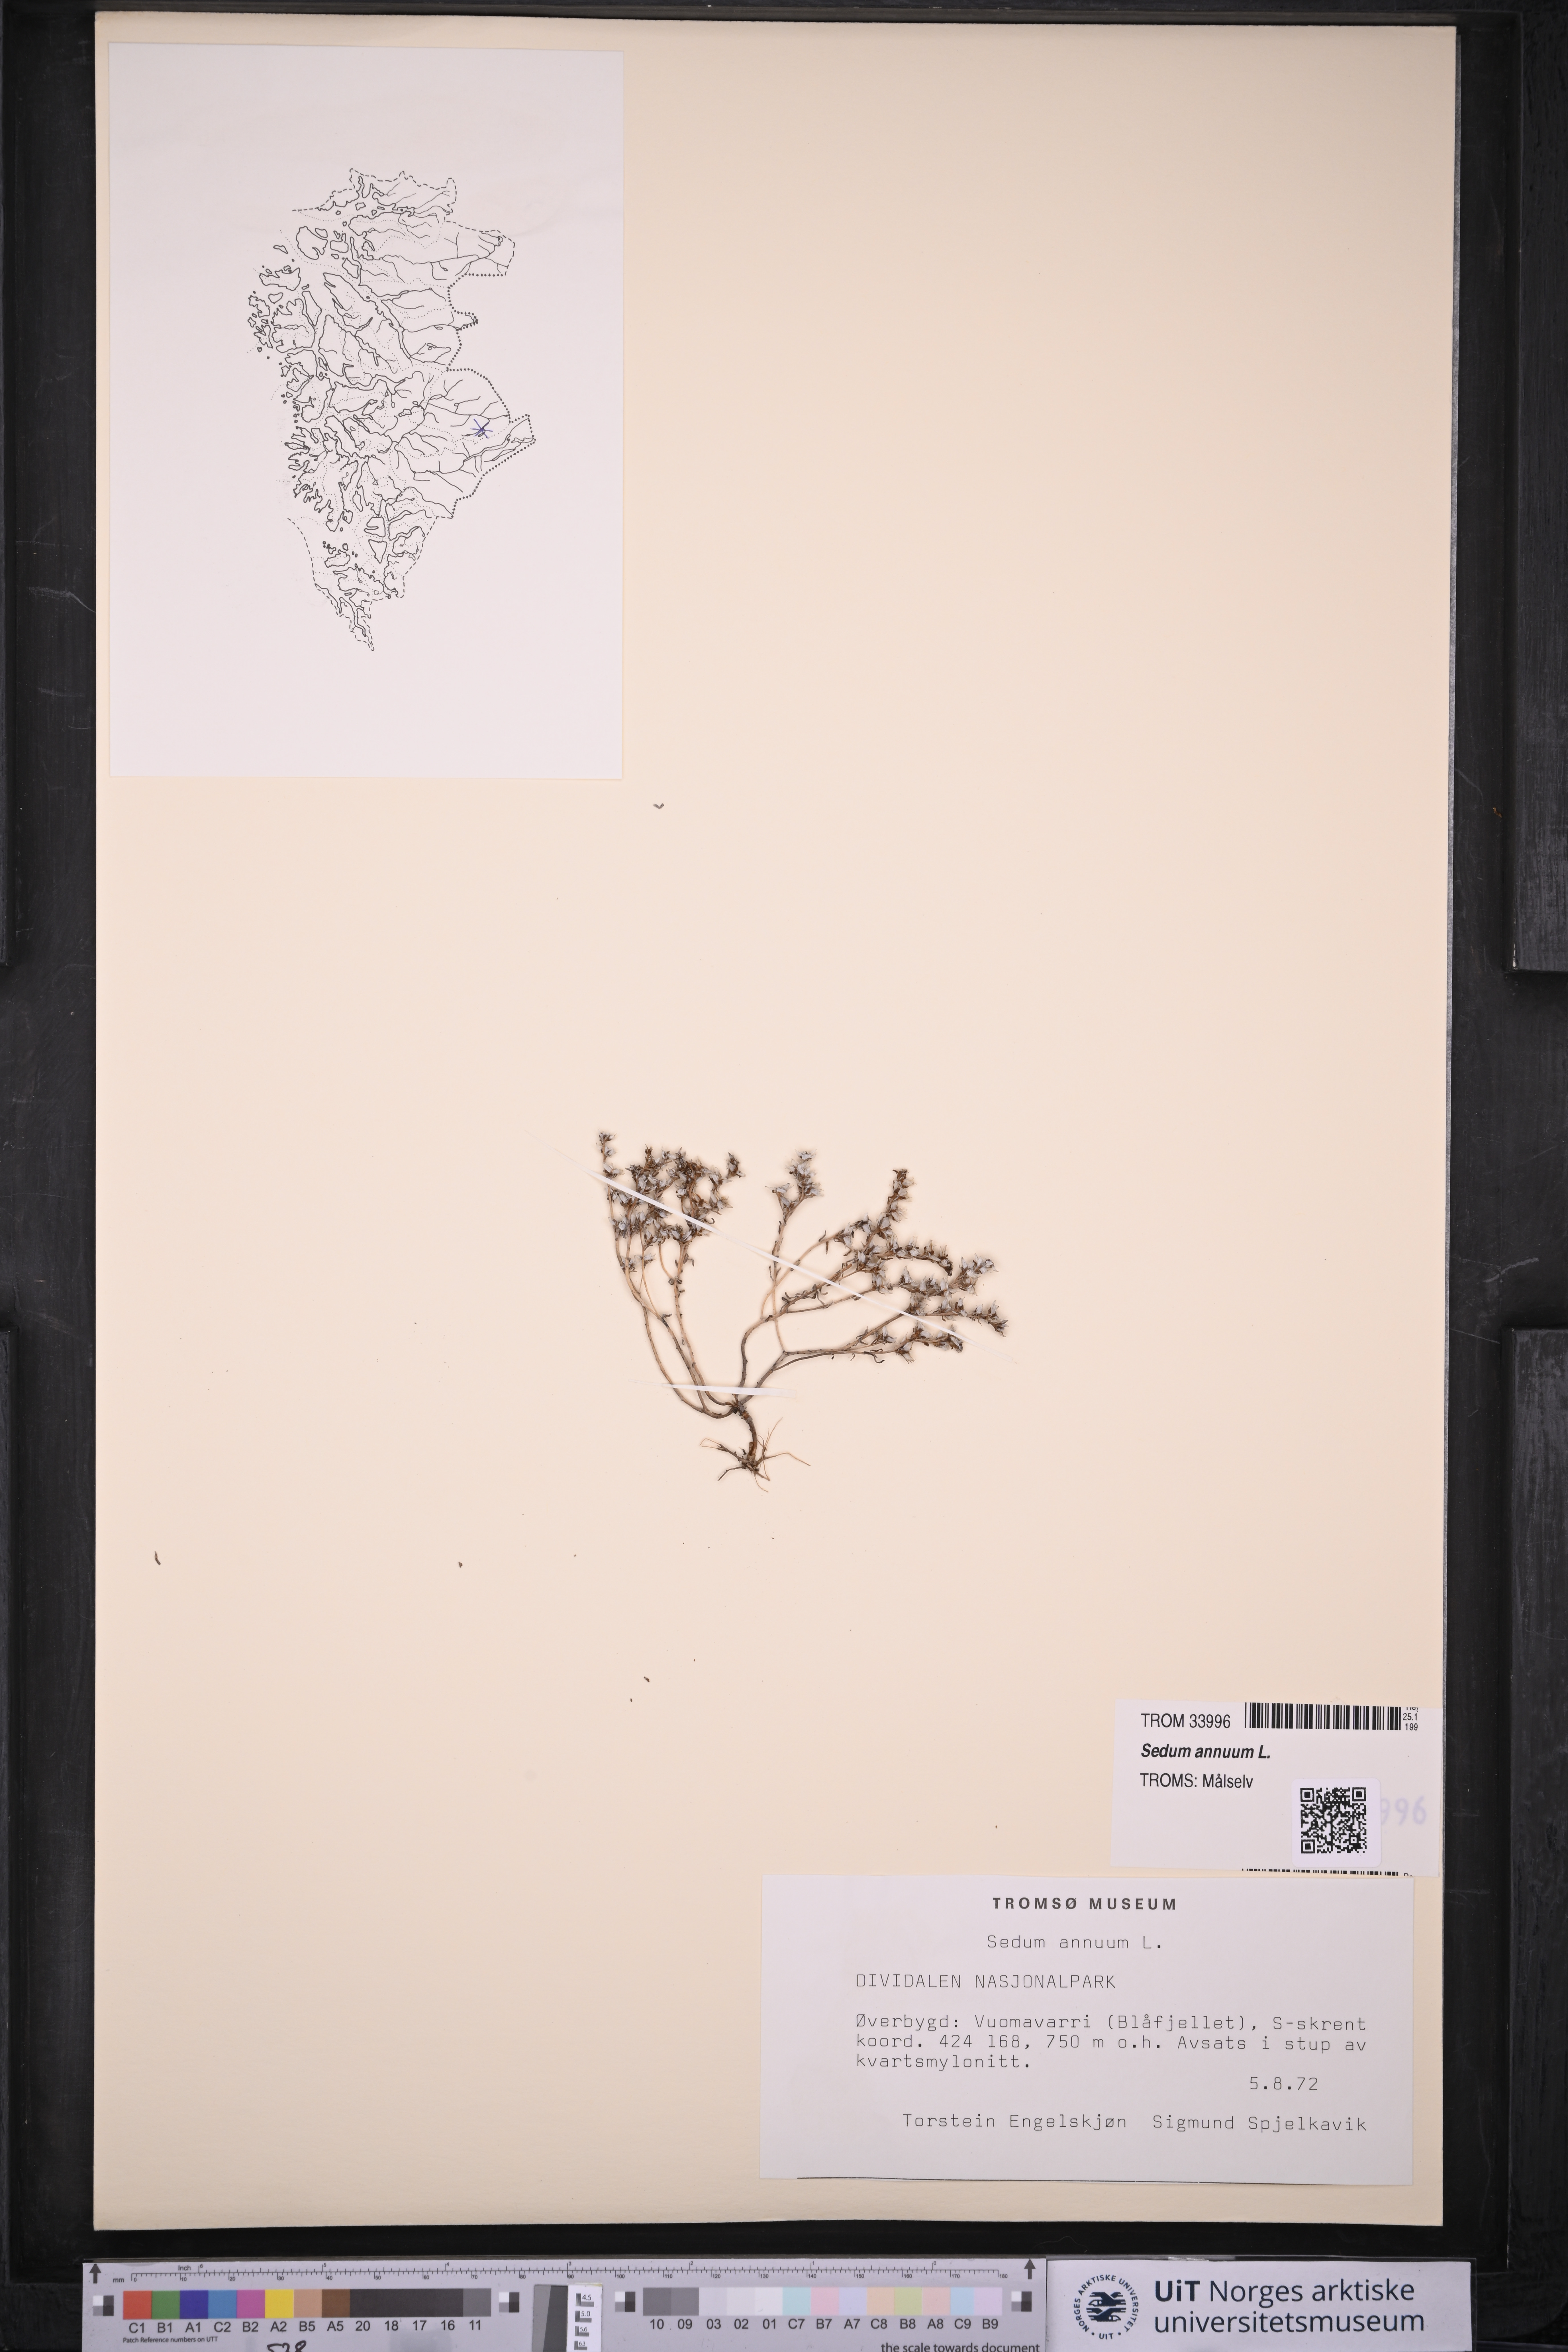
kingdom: Plantae
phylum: Tracheophyta
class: Magnoliopsida
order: Saxifragales
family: Crassulaceae
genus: Sedum
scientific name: Sedum annuum
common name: Annual stonecrop
